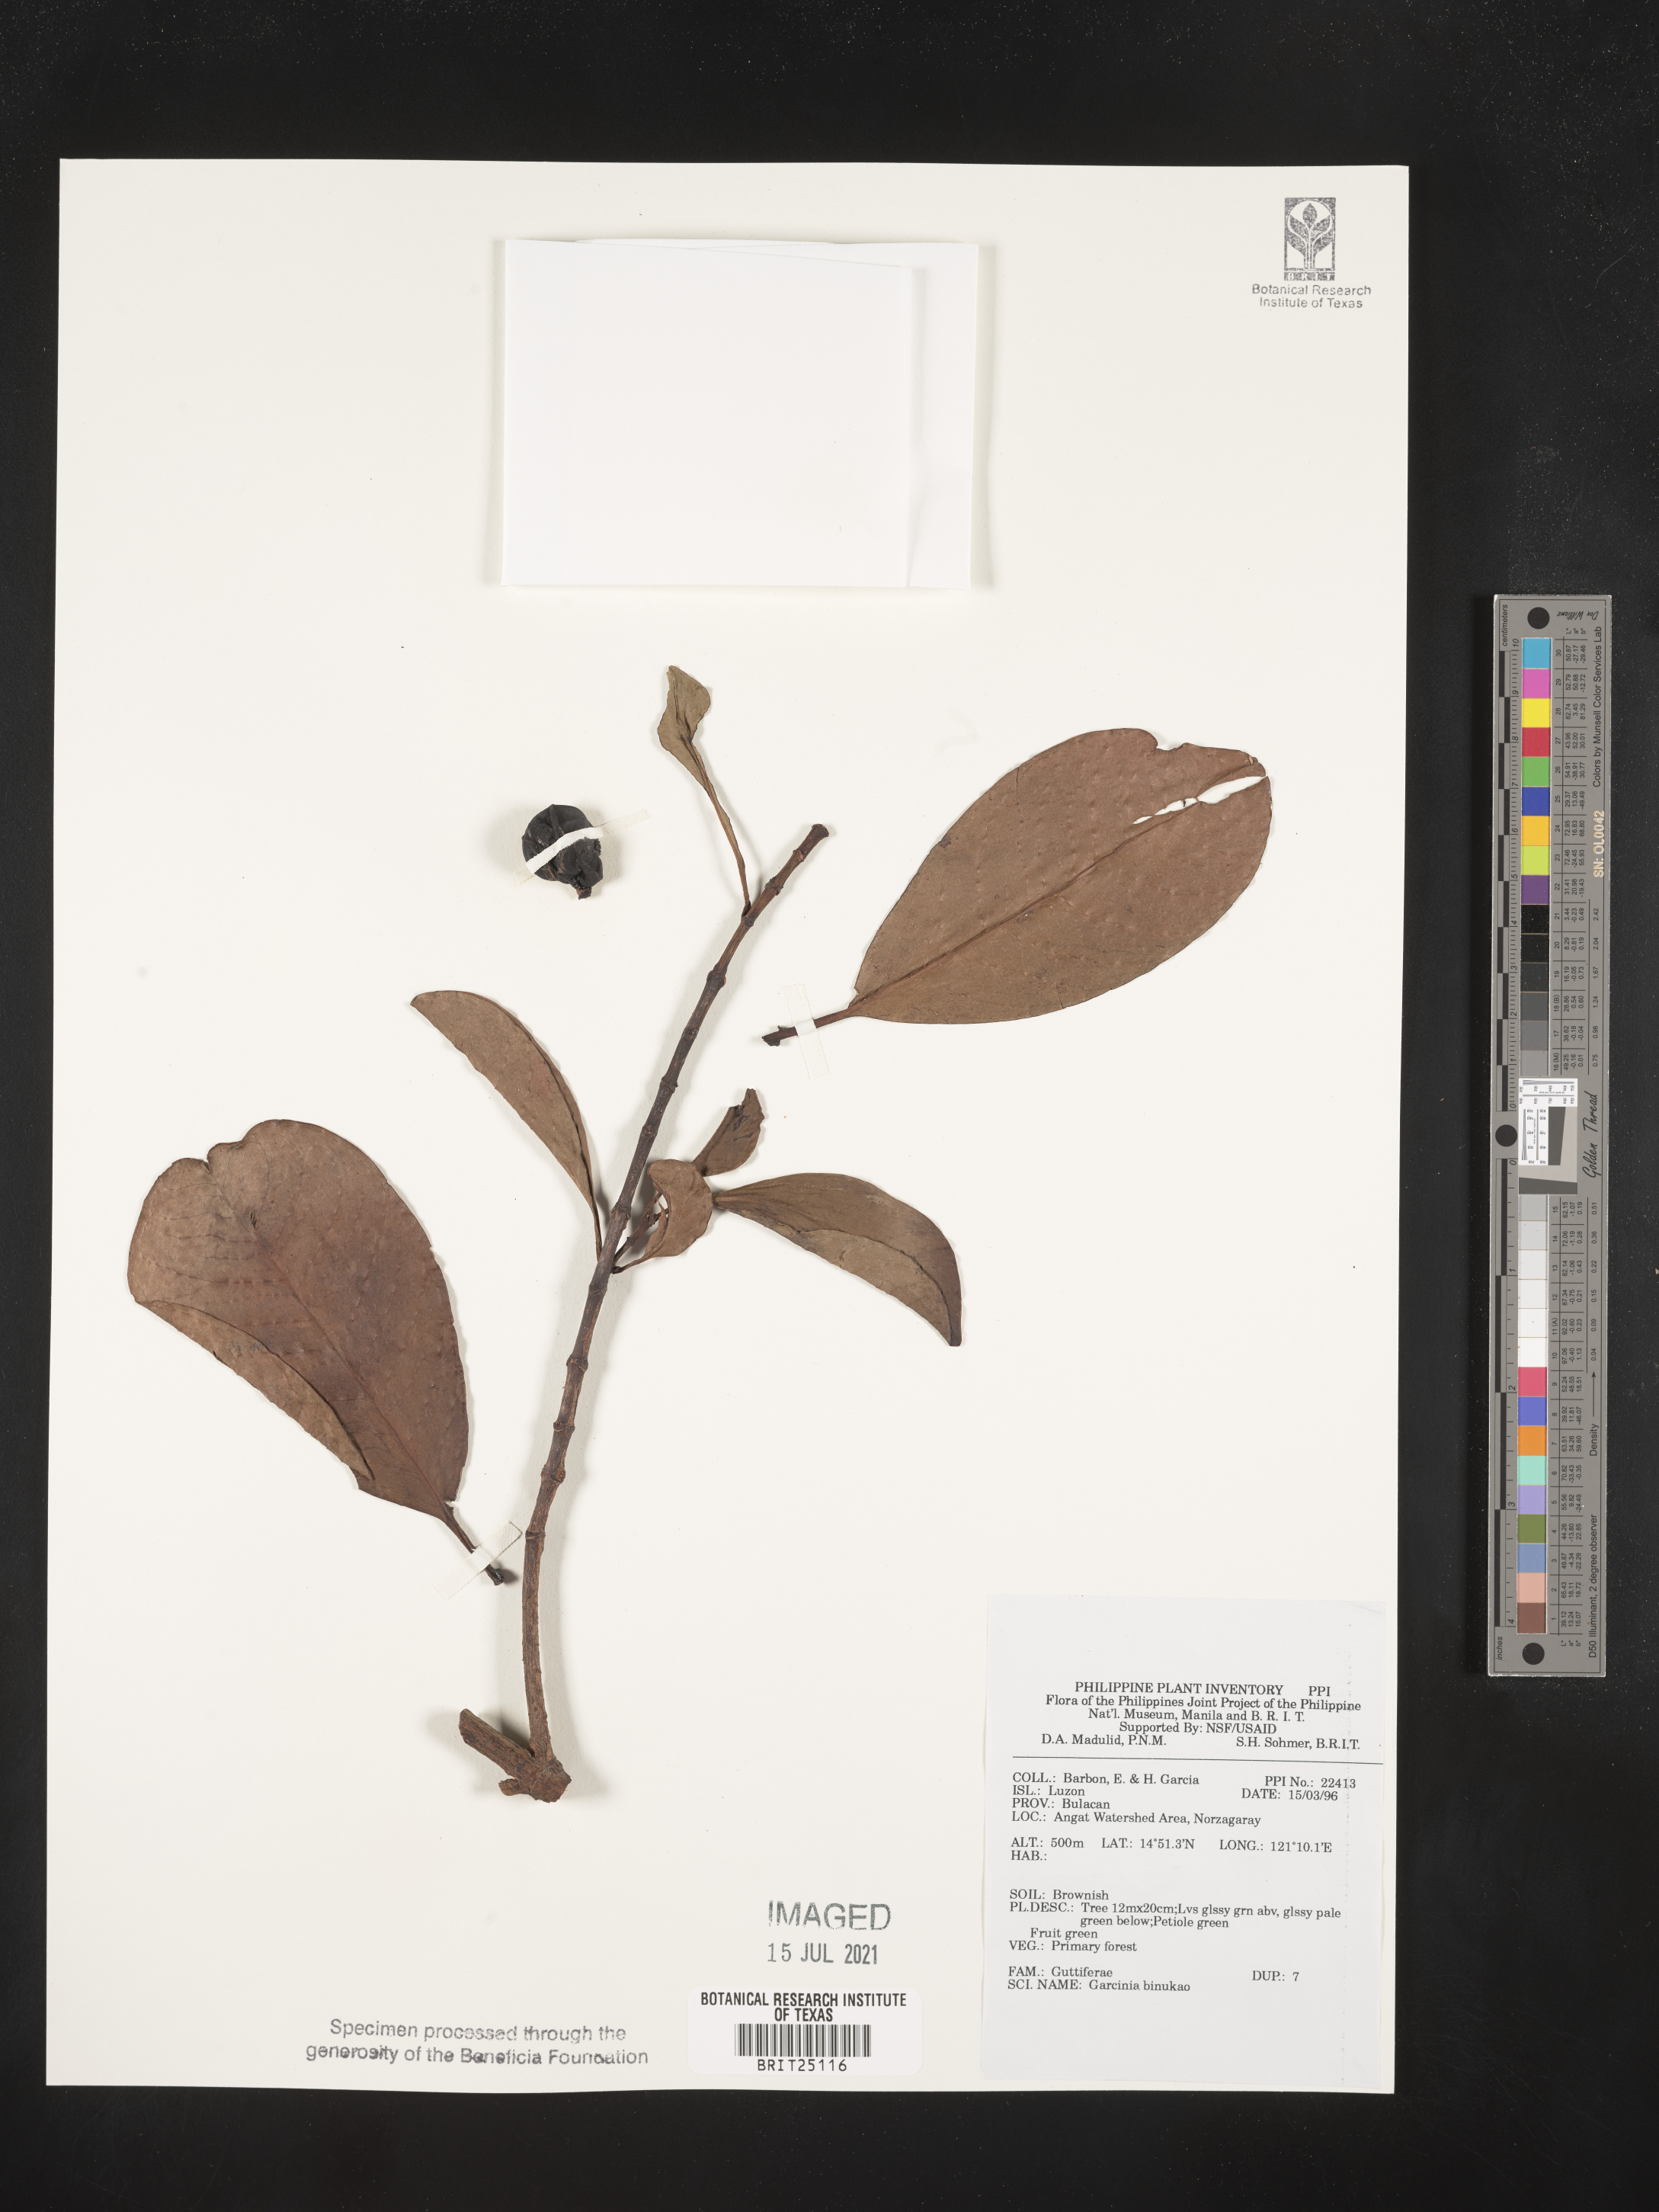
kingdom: Plantae
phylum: Tracheophyta
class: Magnoliopsida
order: Malpighiales
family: Clusiaceae
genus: Garcinia
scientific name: Garcinia binucao
